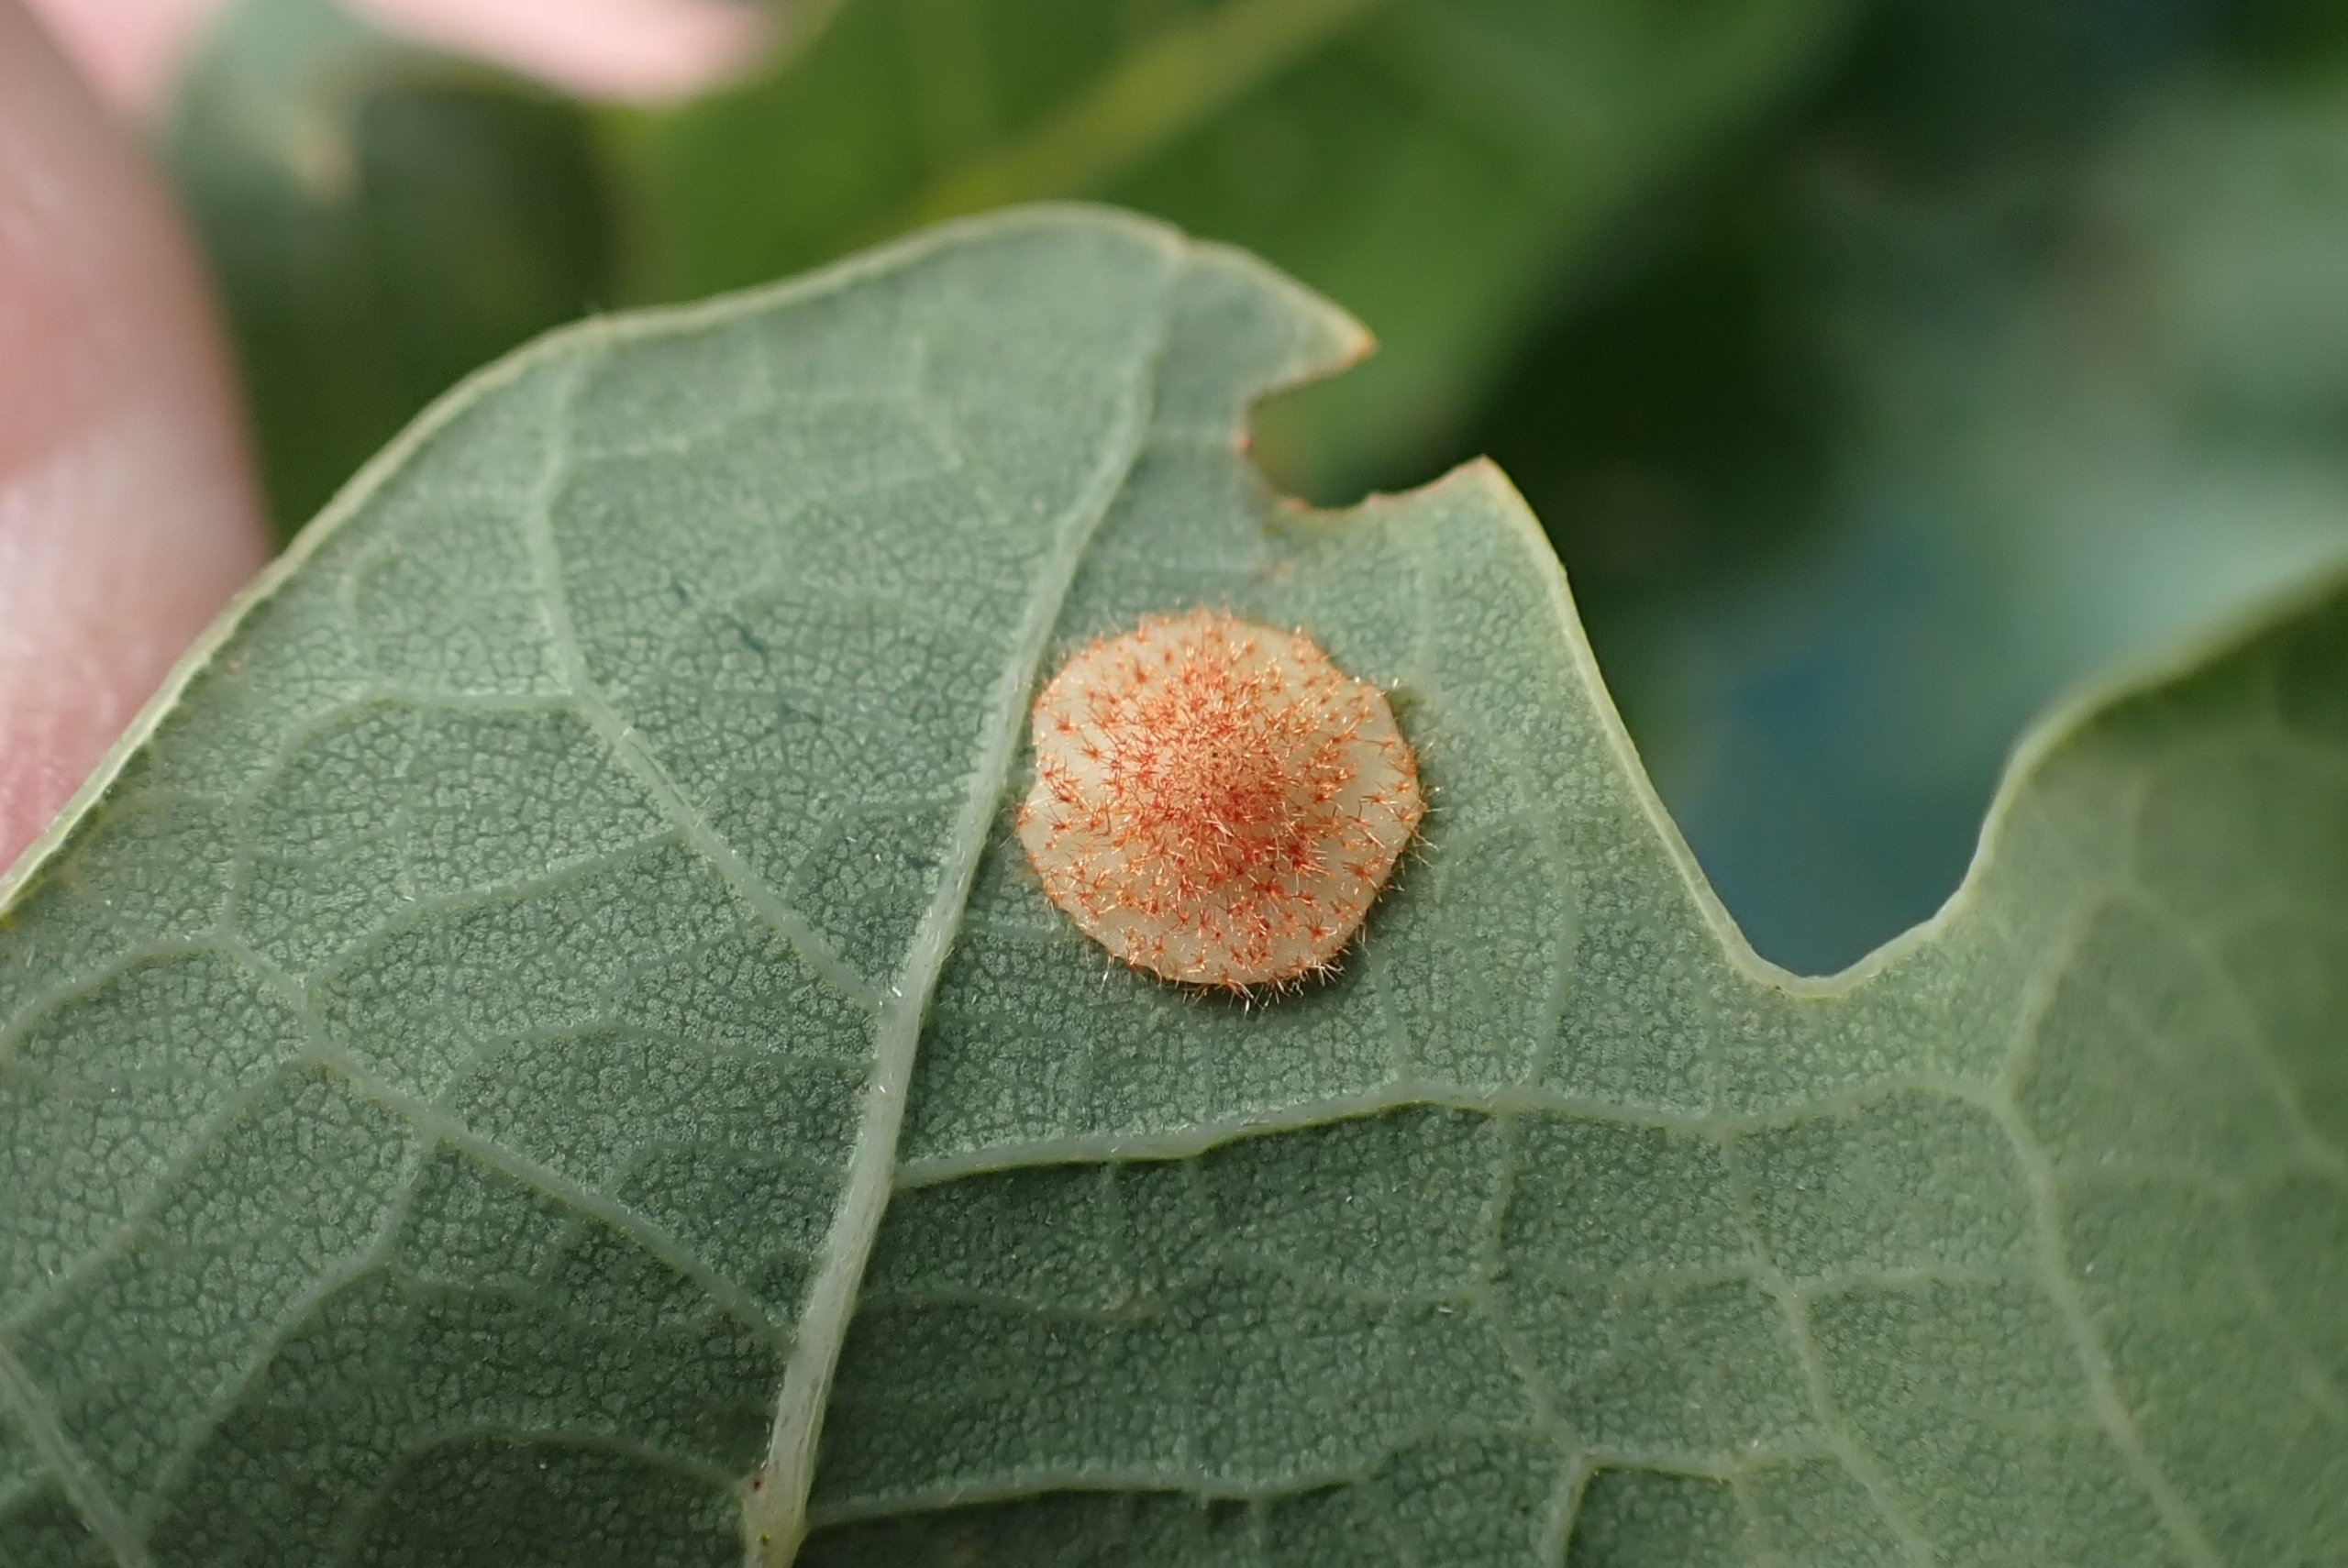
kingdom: Animalia
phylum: Arthropoda
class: Insecta
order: Hymenoptera
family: Cynipidae
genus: Neuroterus
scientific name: Neuroterus quercusbaccarum
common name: Linsegalhveps
